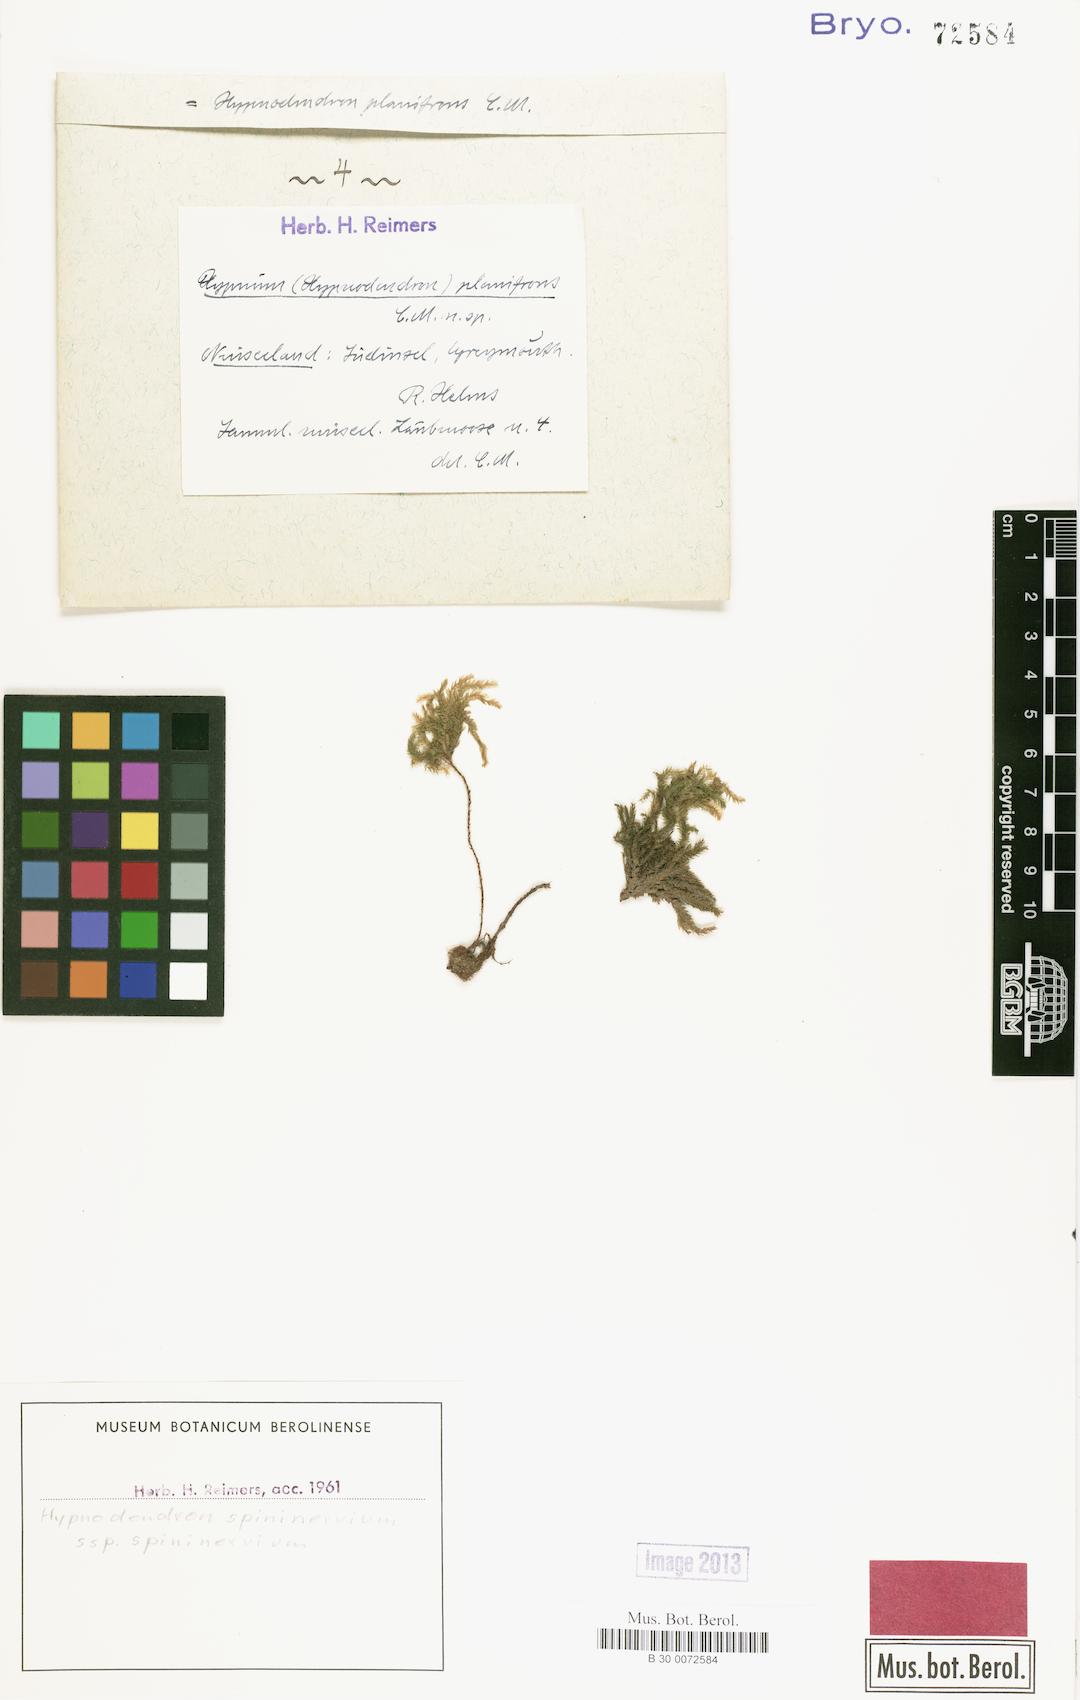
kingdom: Plantae
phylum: Bryophyta
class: Bryopsida
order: Hypnodendrales
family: Spiridentaceae
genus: Hypnodendron
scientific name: Hypnodendron spininervium
